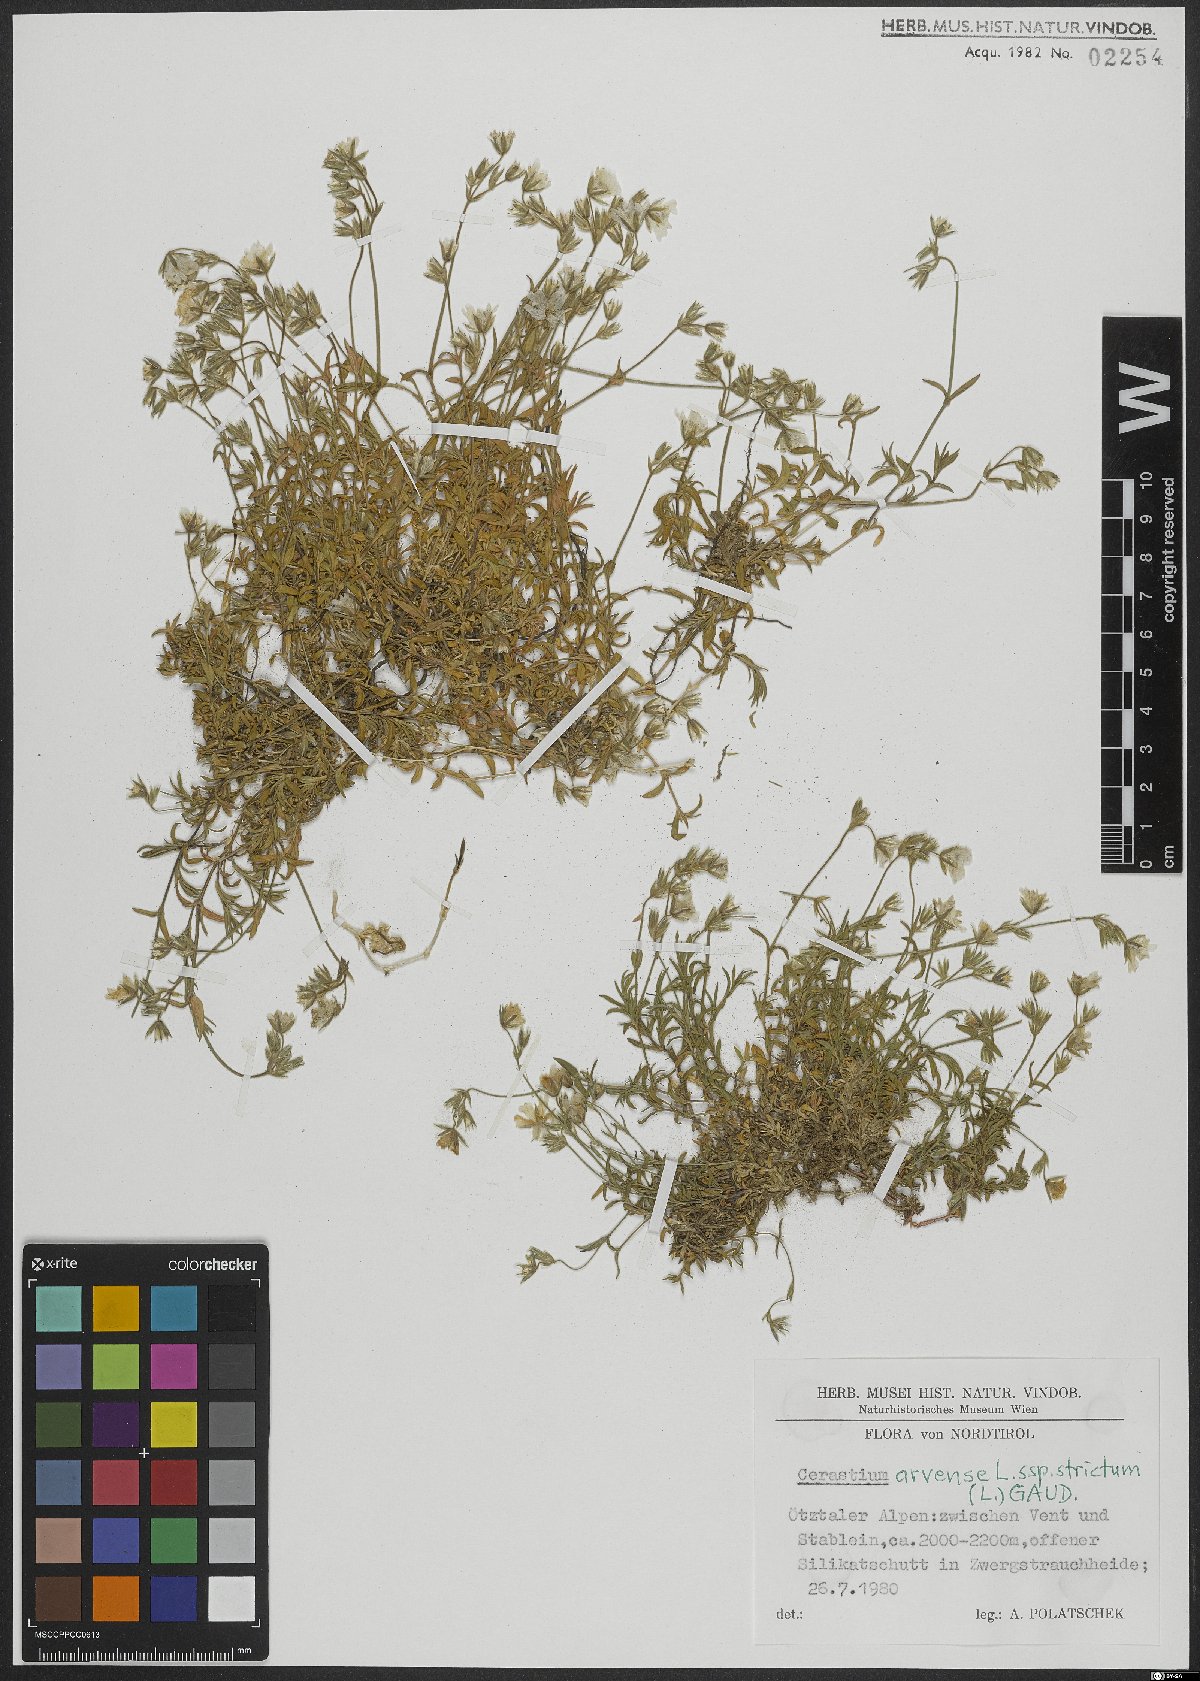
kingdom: Plantae
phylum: Tracheophyta
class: Magnoliopsida
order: Caryophyllales
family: Caryophyllaceae
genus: Cerastium
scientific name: Cerastium elongatum
